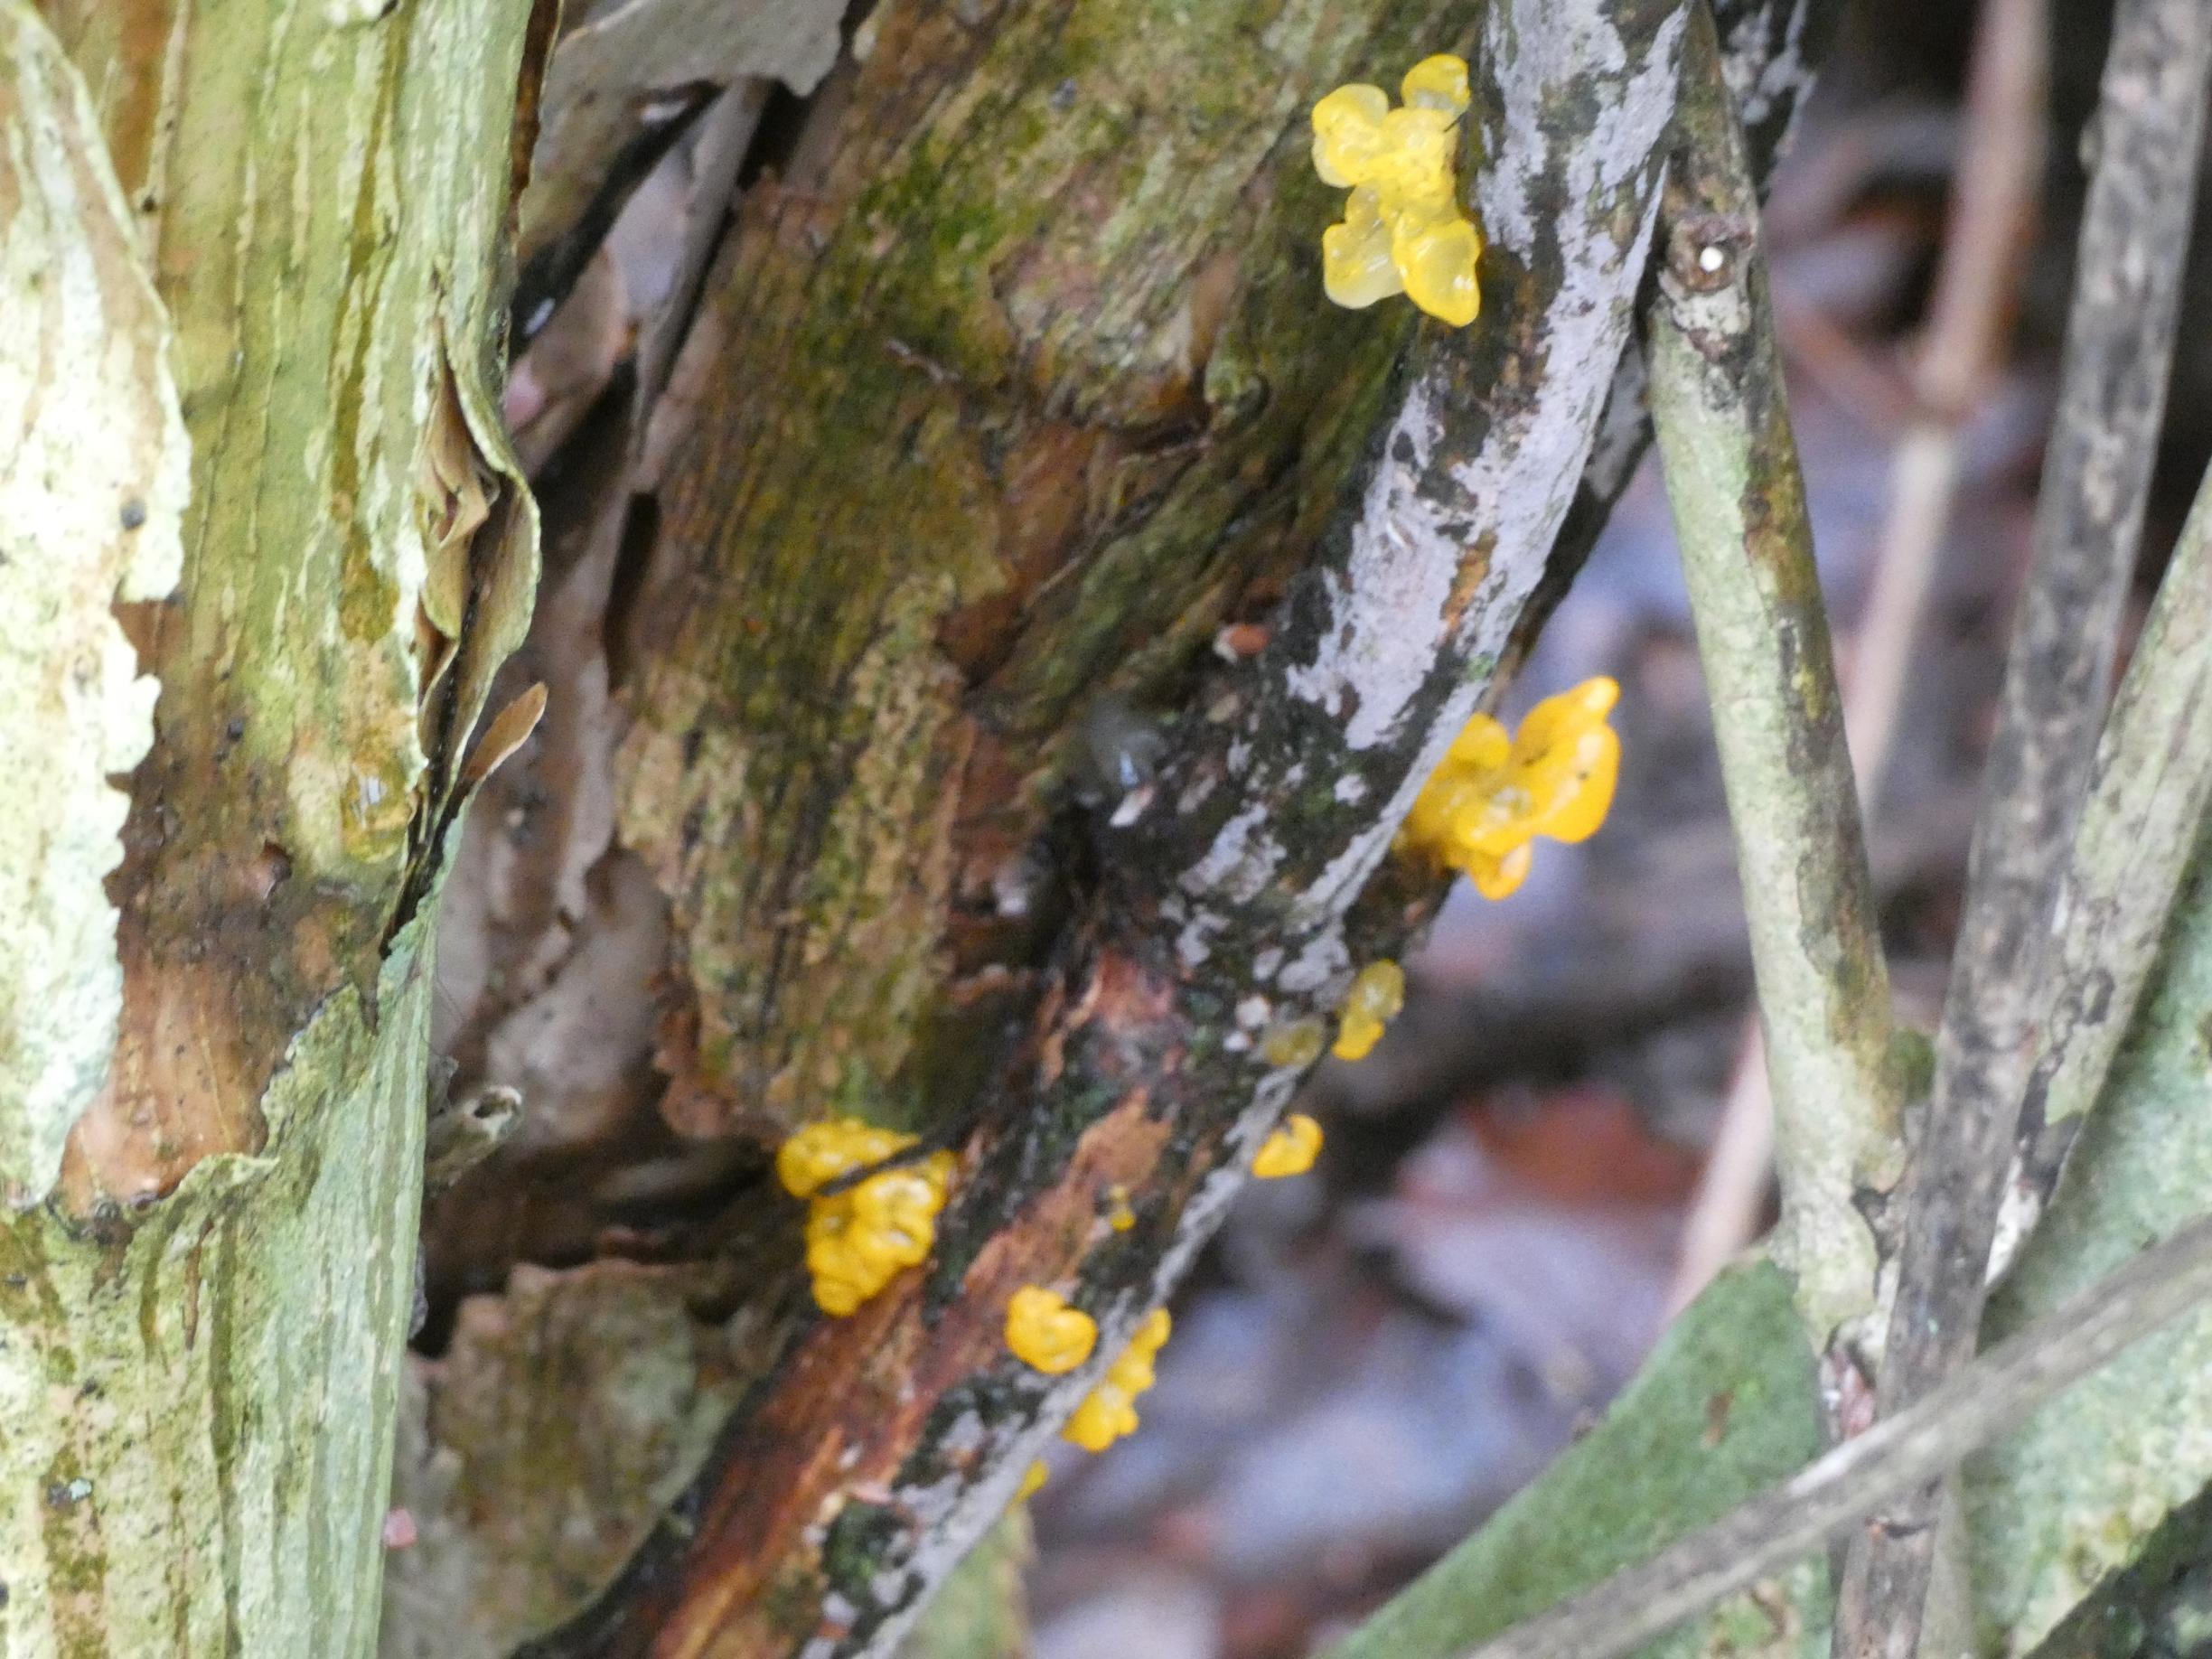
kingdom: Fungi
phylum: Basidiomycota
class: Tremellomycetes
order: Tremellales
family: Tremellaceae
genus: Tremella
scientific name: Tremella mesenterica
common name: Gul bævresvamp
